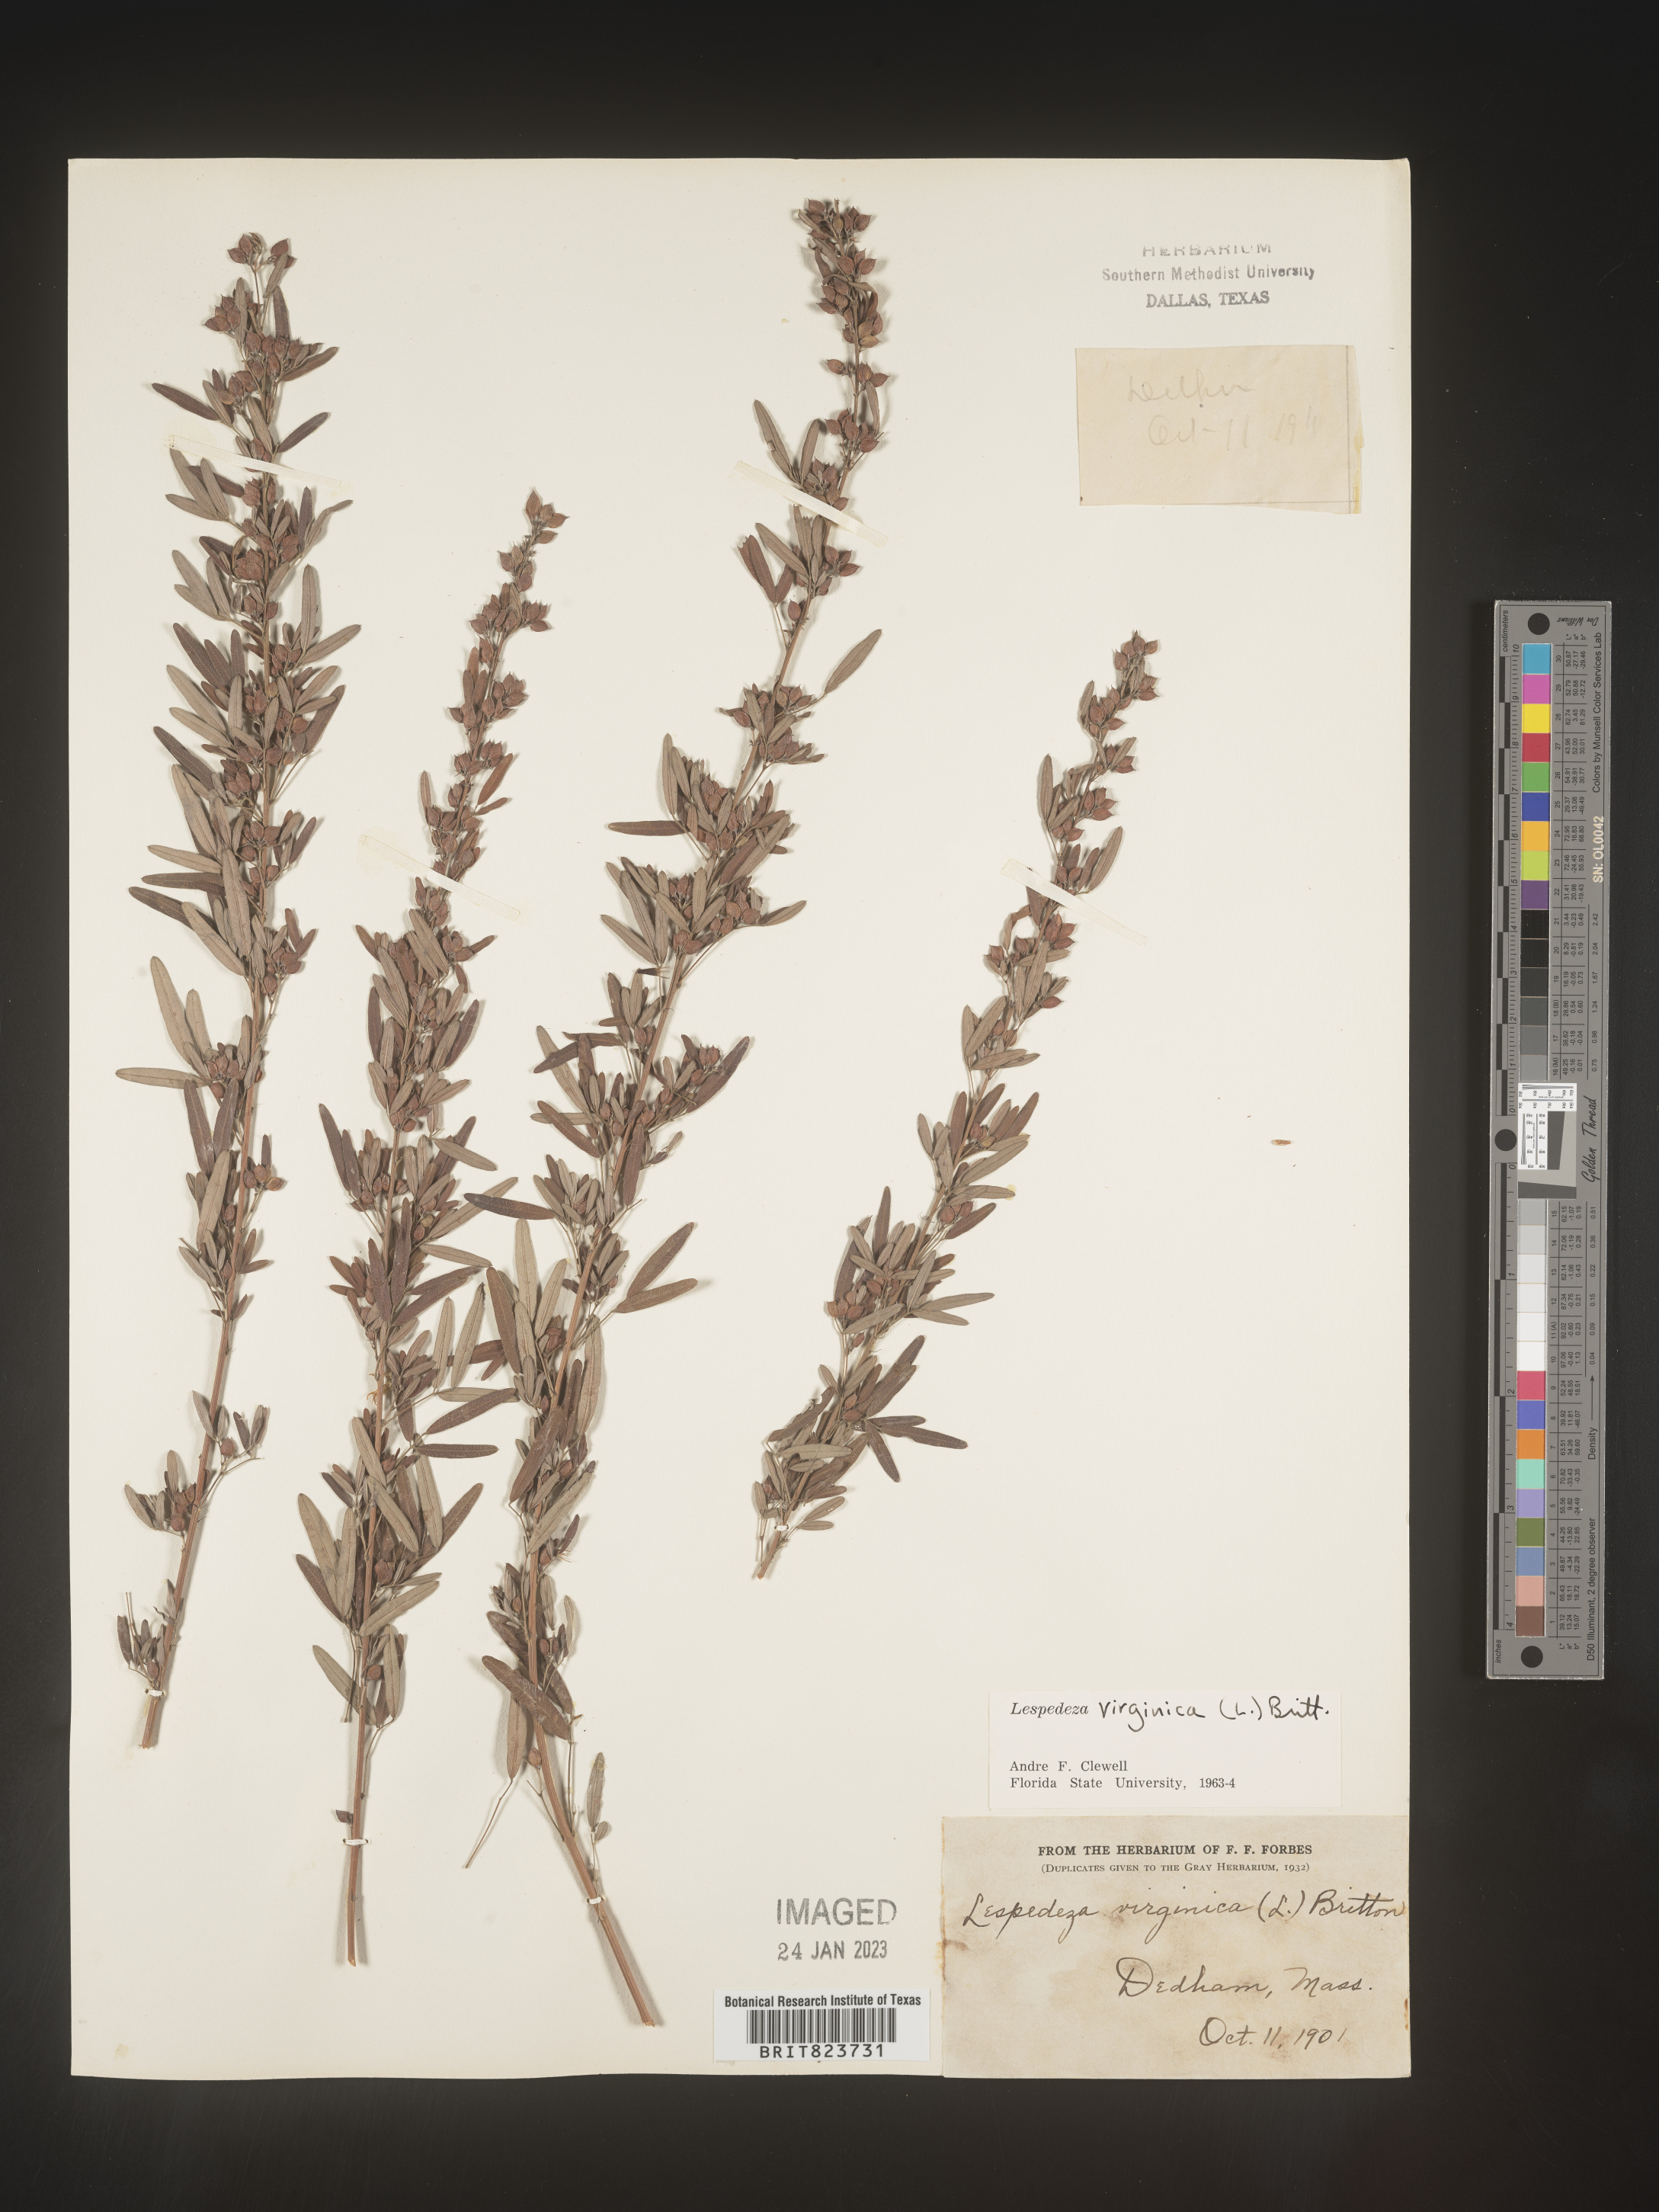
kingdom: Plantae
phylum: Tracheophyta
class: Magnoliopsida
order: Fabales
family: Fabaceae
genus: Lespedeza
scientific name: Lespedeza virginica
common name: Slender bush-clover
